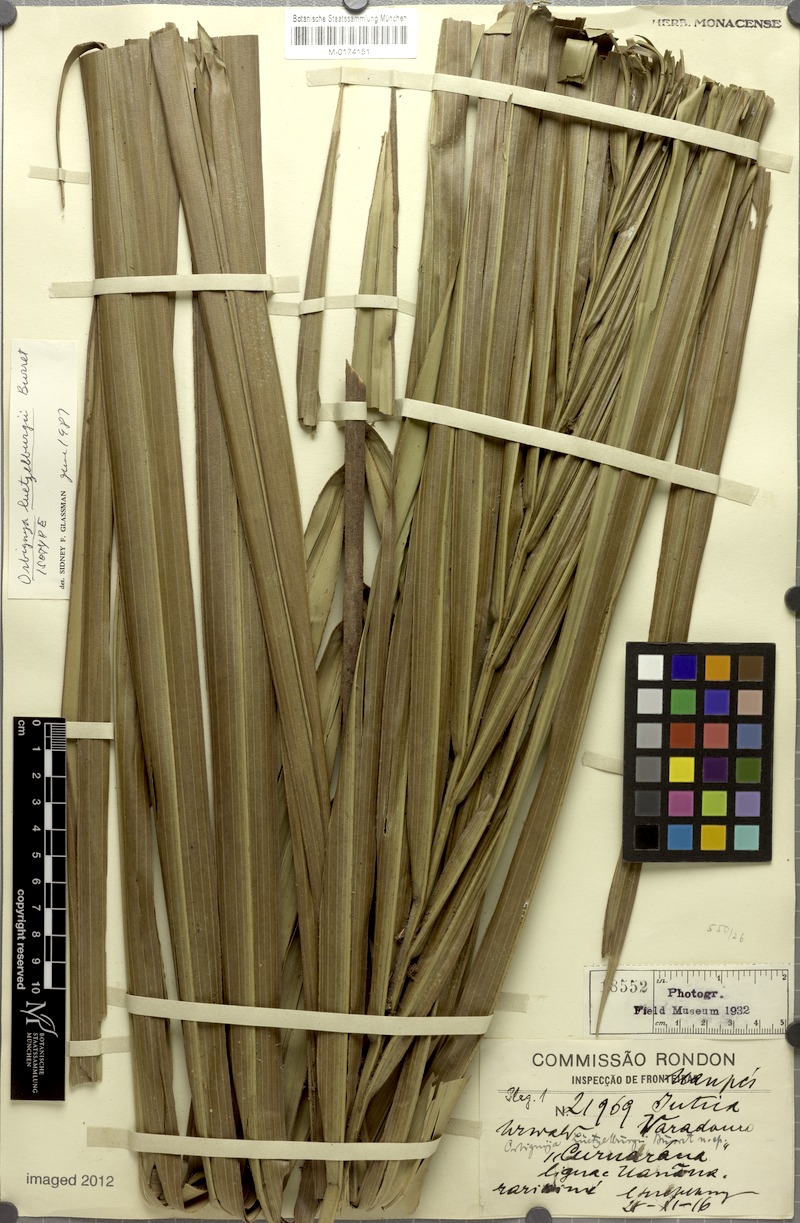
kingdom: Plantae
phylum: Tracheophyta
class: Liliopsida
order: Arecales
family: Arecaceae
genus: Attalea
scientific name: Attalea luetzelburgii
